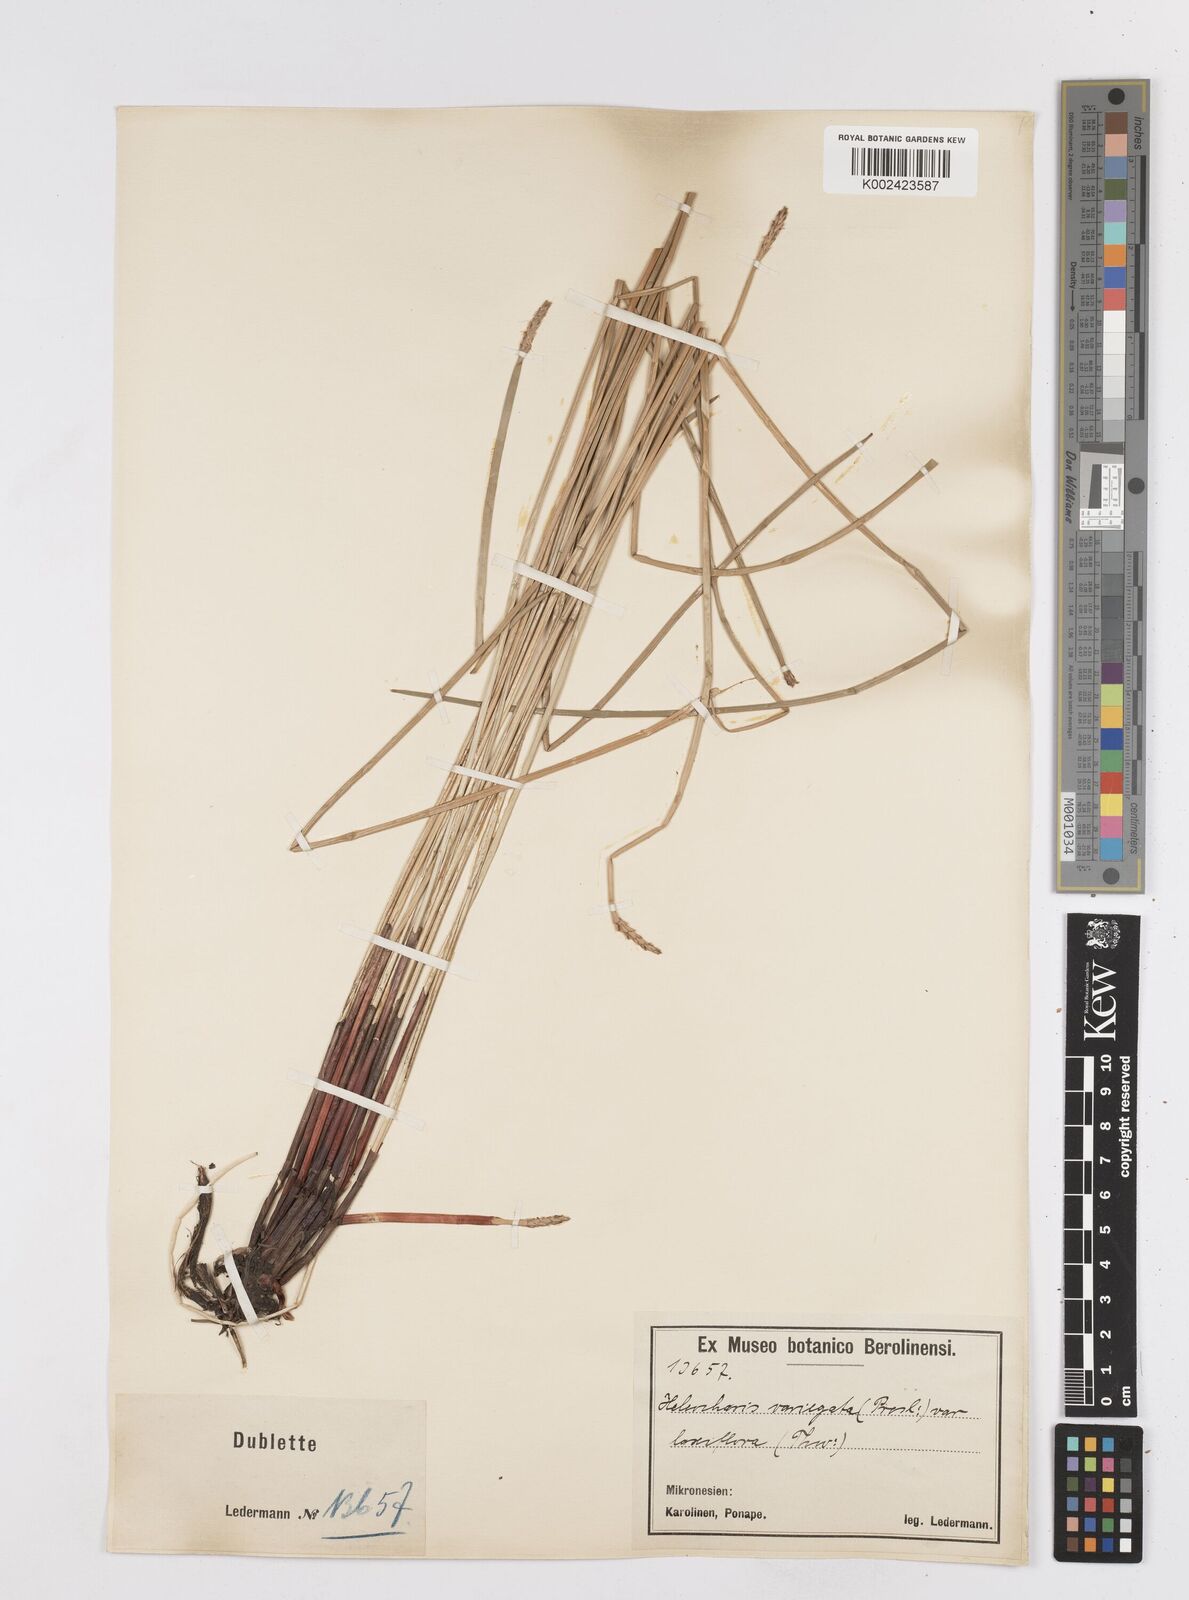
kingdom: Plantae
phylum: Tracheophyta
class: Liliopsida
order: Poales
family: Cyperaceae
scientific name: Cyperaceae
